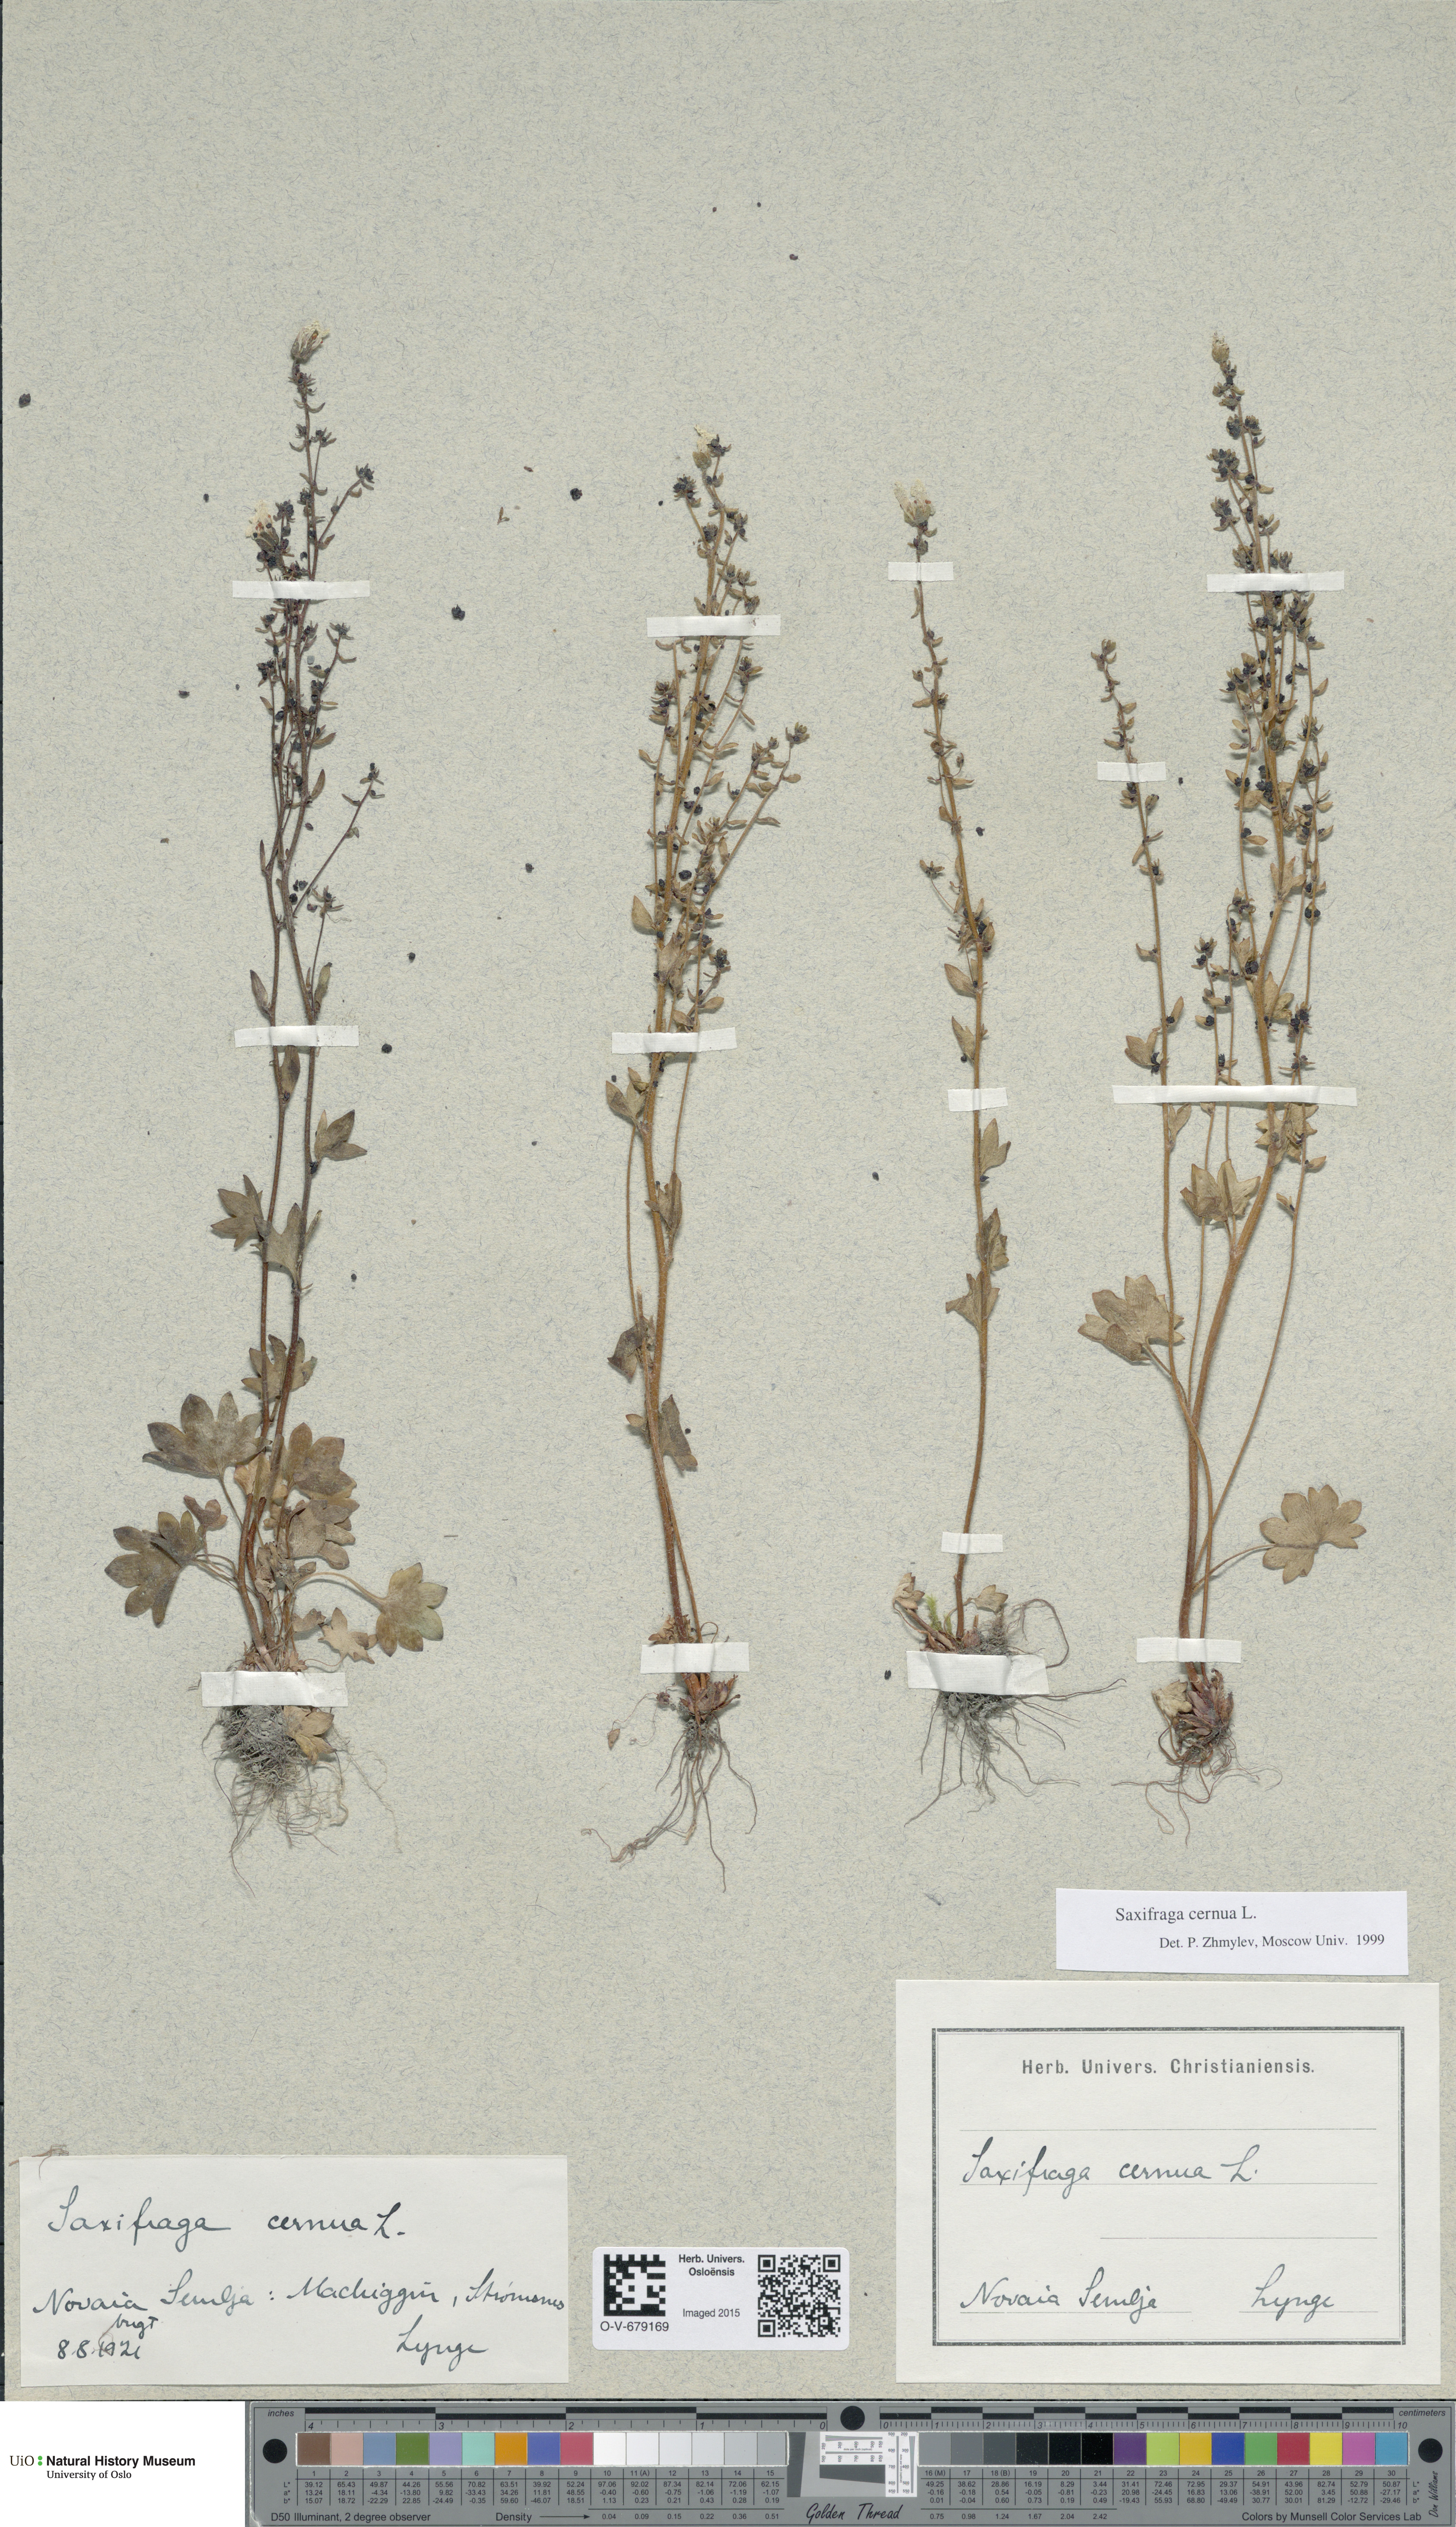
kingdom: Plantae
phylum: Tracheophyta
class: Magnoliopsida
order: Saxifragales
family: Saxifragaceae
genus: Saxifraga
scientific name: Saxifraga cernua
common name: Drooping saxifrage
